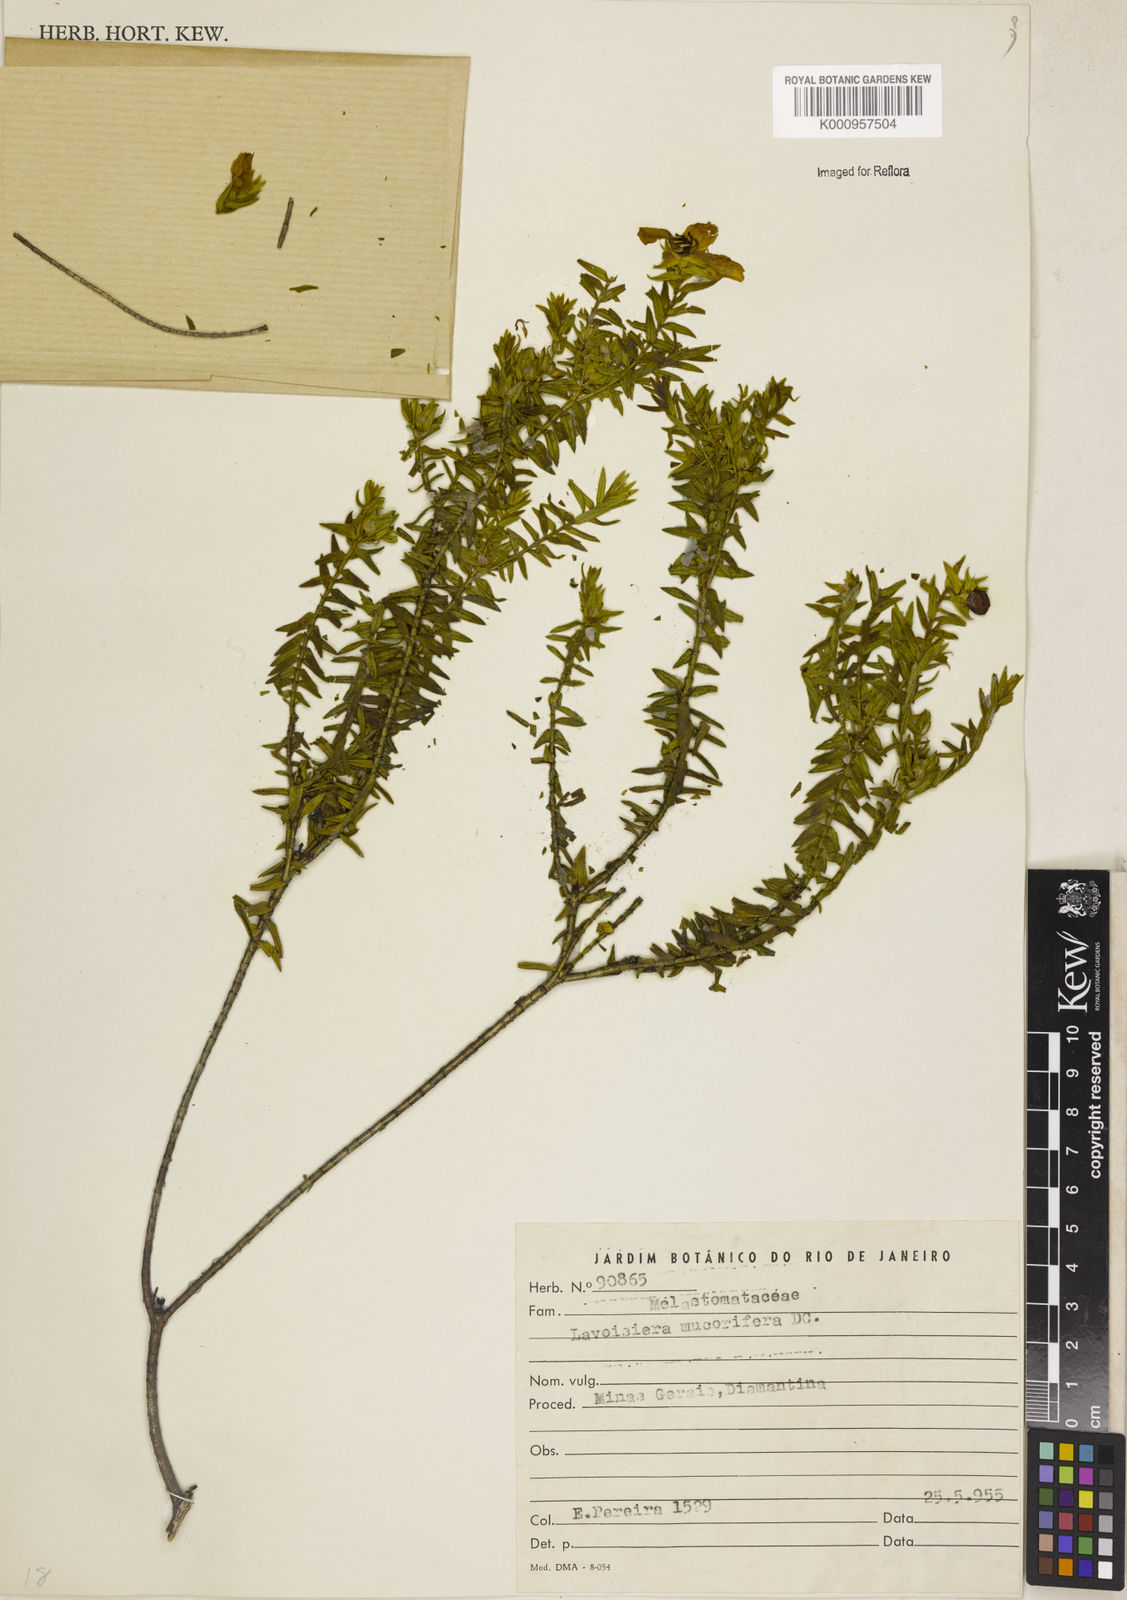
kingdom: Plantae
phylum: Tracheophyta
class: Magnoliopsida
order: Myrtales
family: Melastomataceae
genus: Microlicia
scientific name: Microlicia mucorifera
